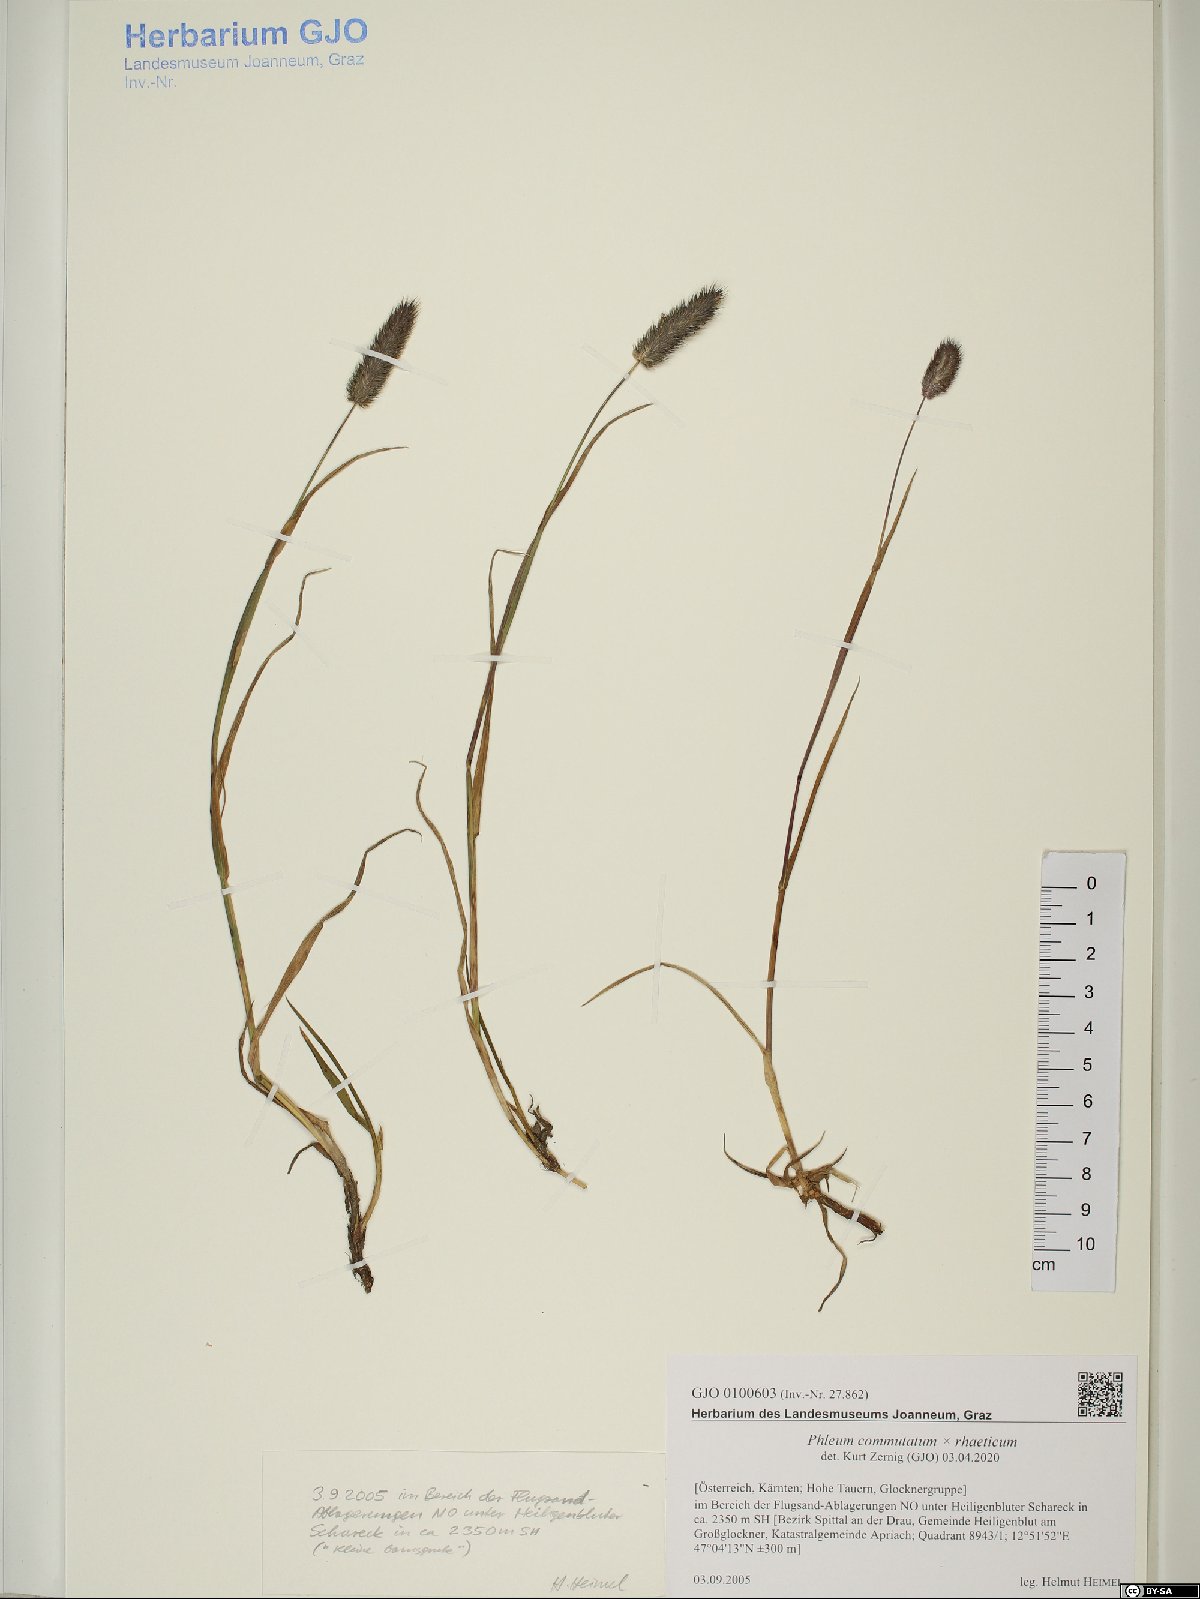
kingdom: Plantae
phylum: Tracheophyta
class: Liliopsida
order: Poales
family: Poaceae
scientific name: Poaceae
